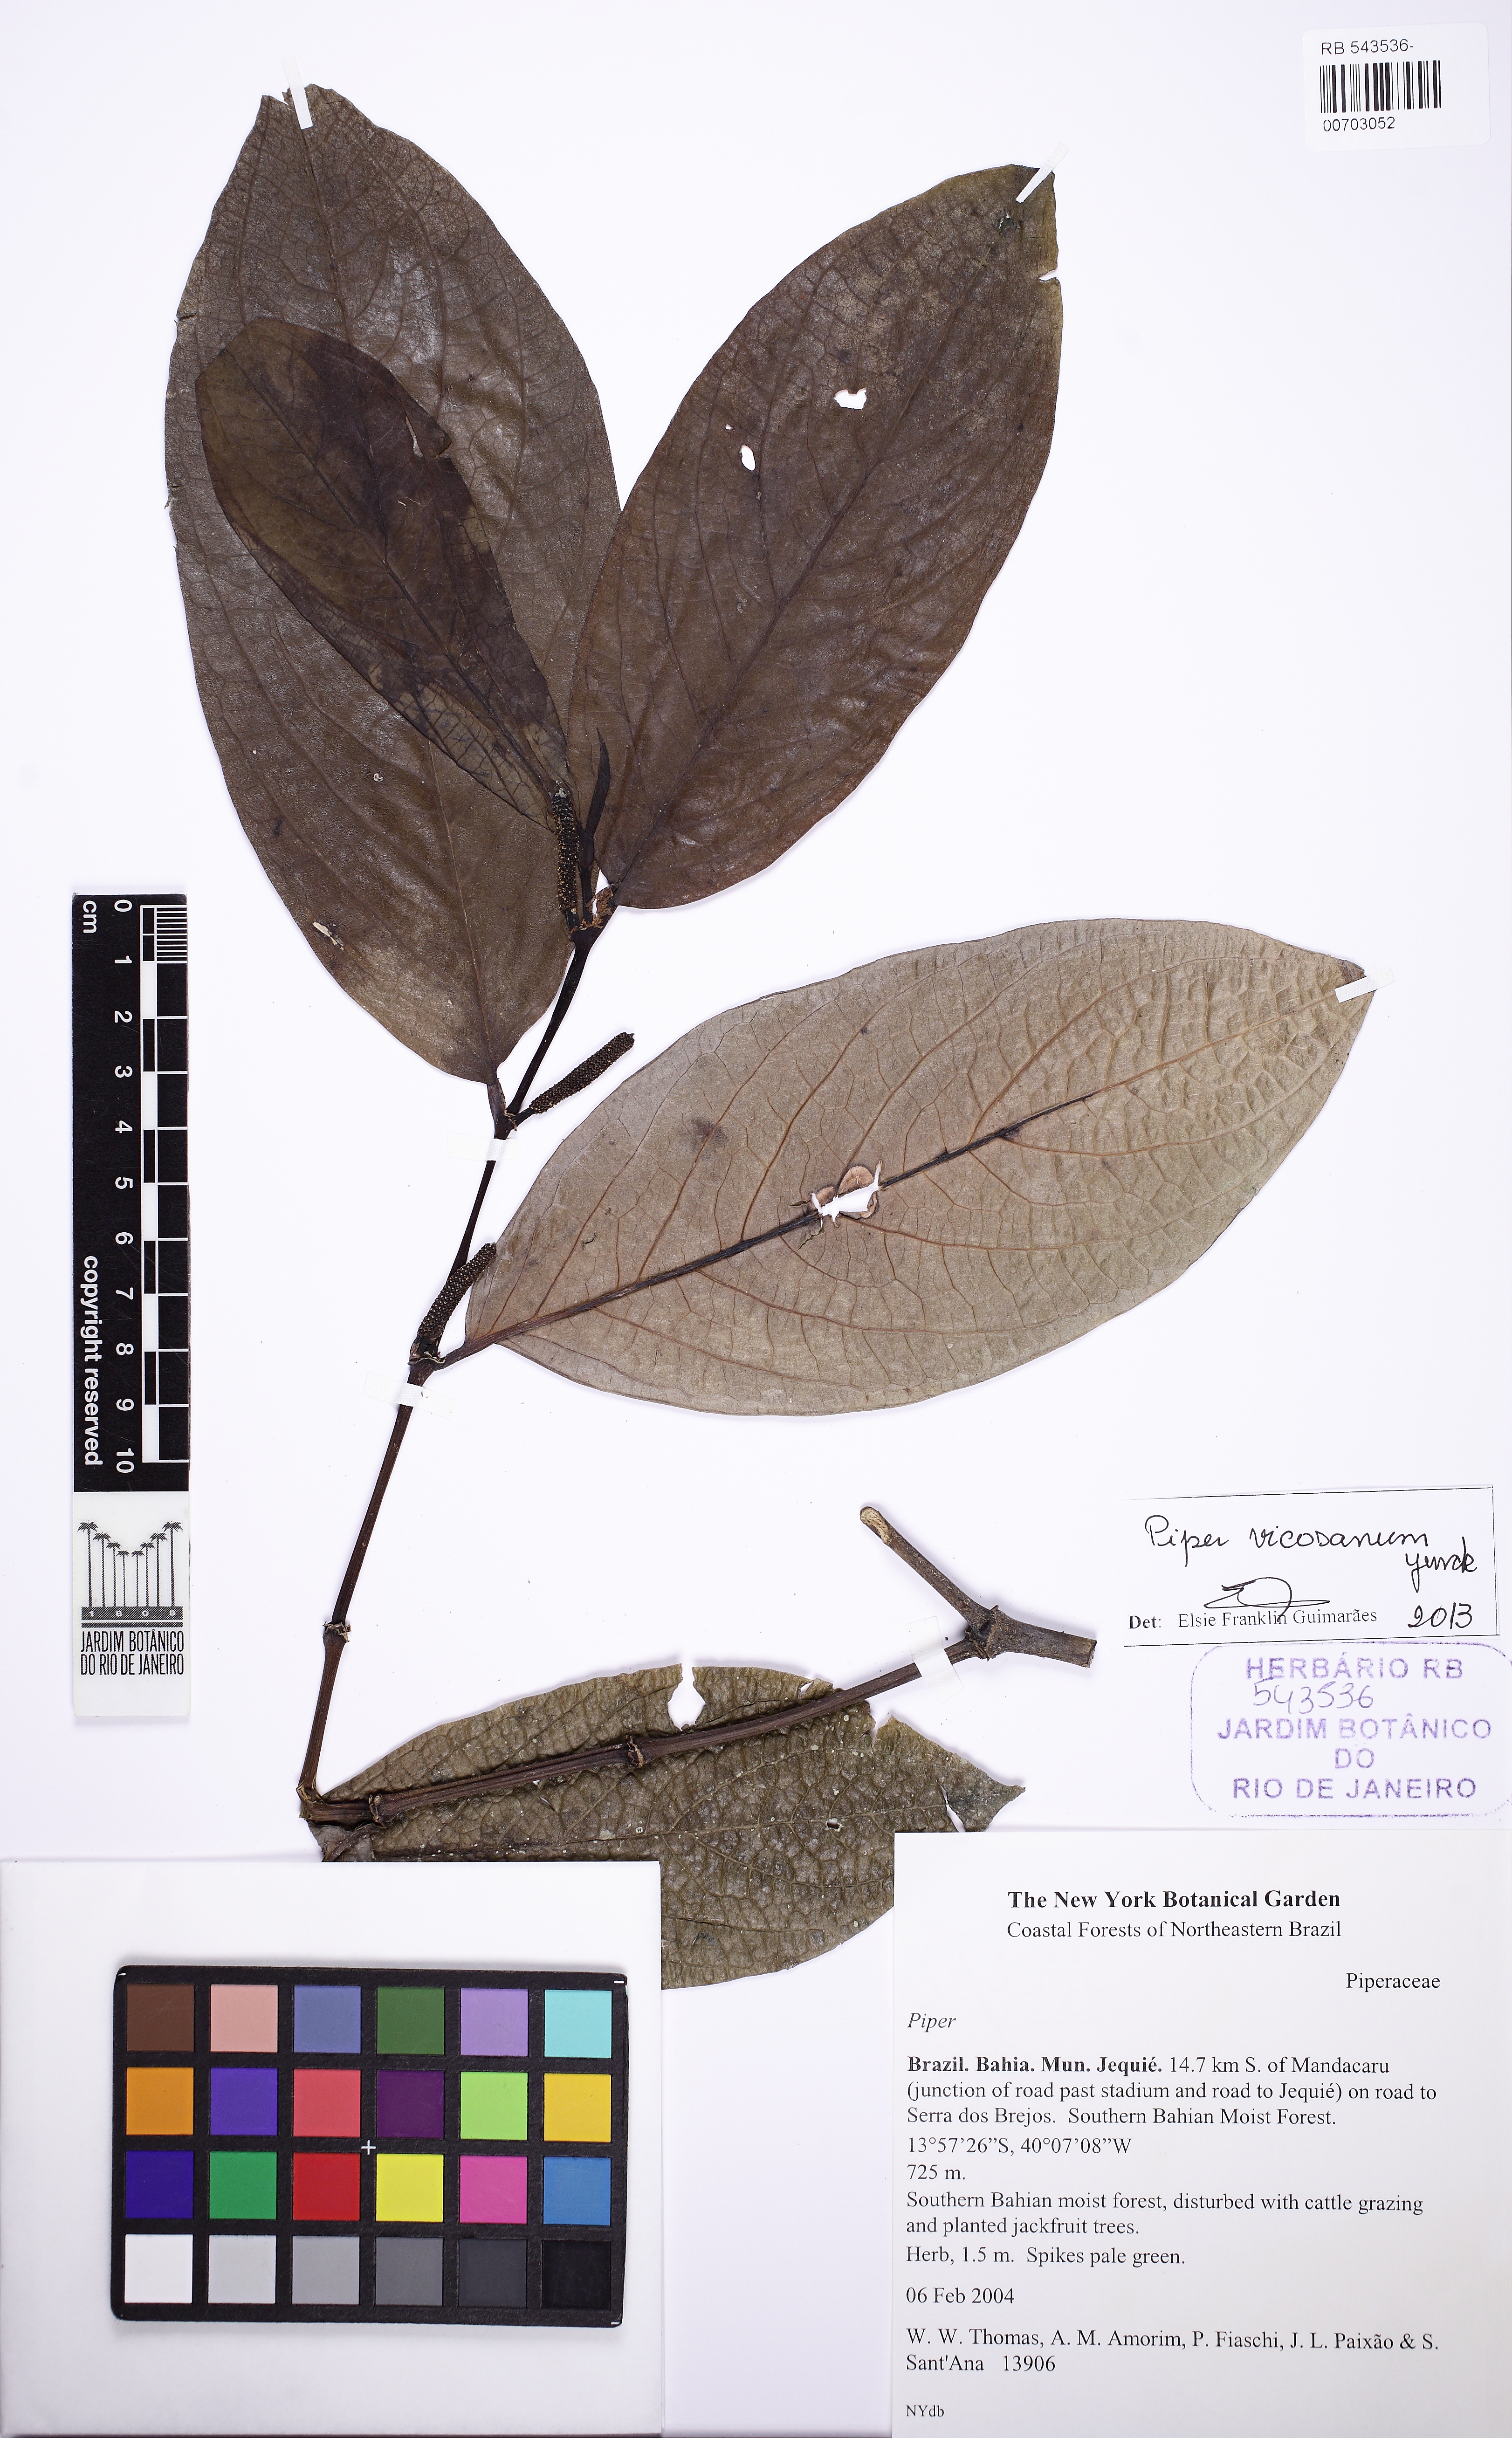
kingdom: Plantae
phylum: Tracheophyta
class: Magnoliopsida
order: Piperales
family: Piperaceae
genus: Piper
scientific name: Piper vicosanum
